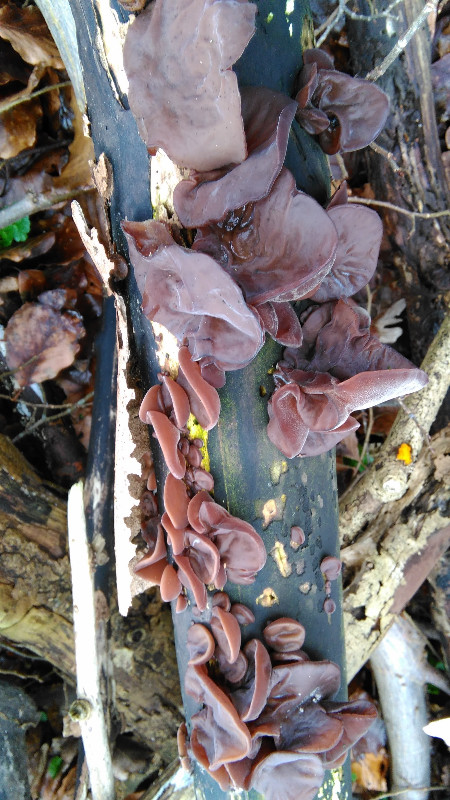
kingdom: Fungi
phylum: Basidiomycota
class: Agaricomycetes
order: Auriculariales
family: Auriculariaceae
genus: Auricularia
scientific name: Auricularia auricula-judae
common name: almindelig judasøre
